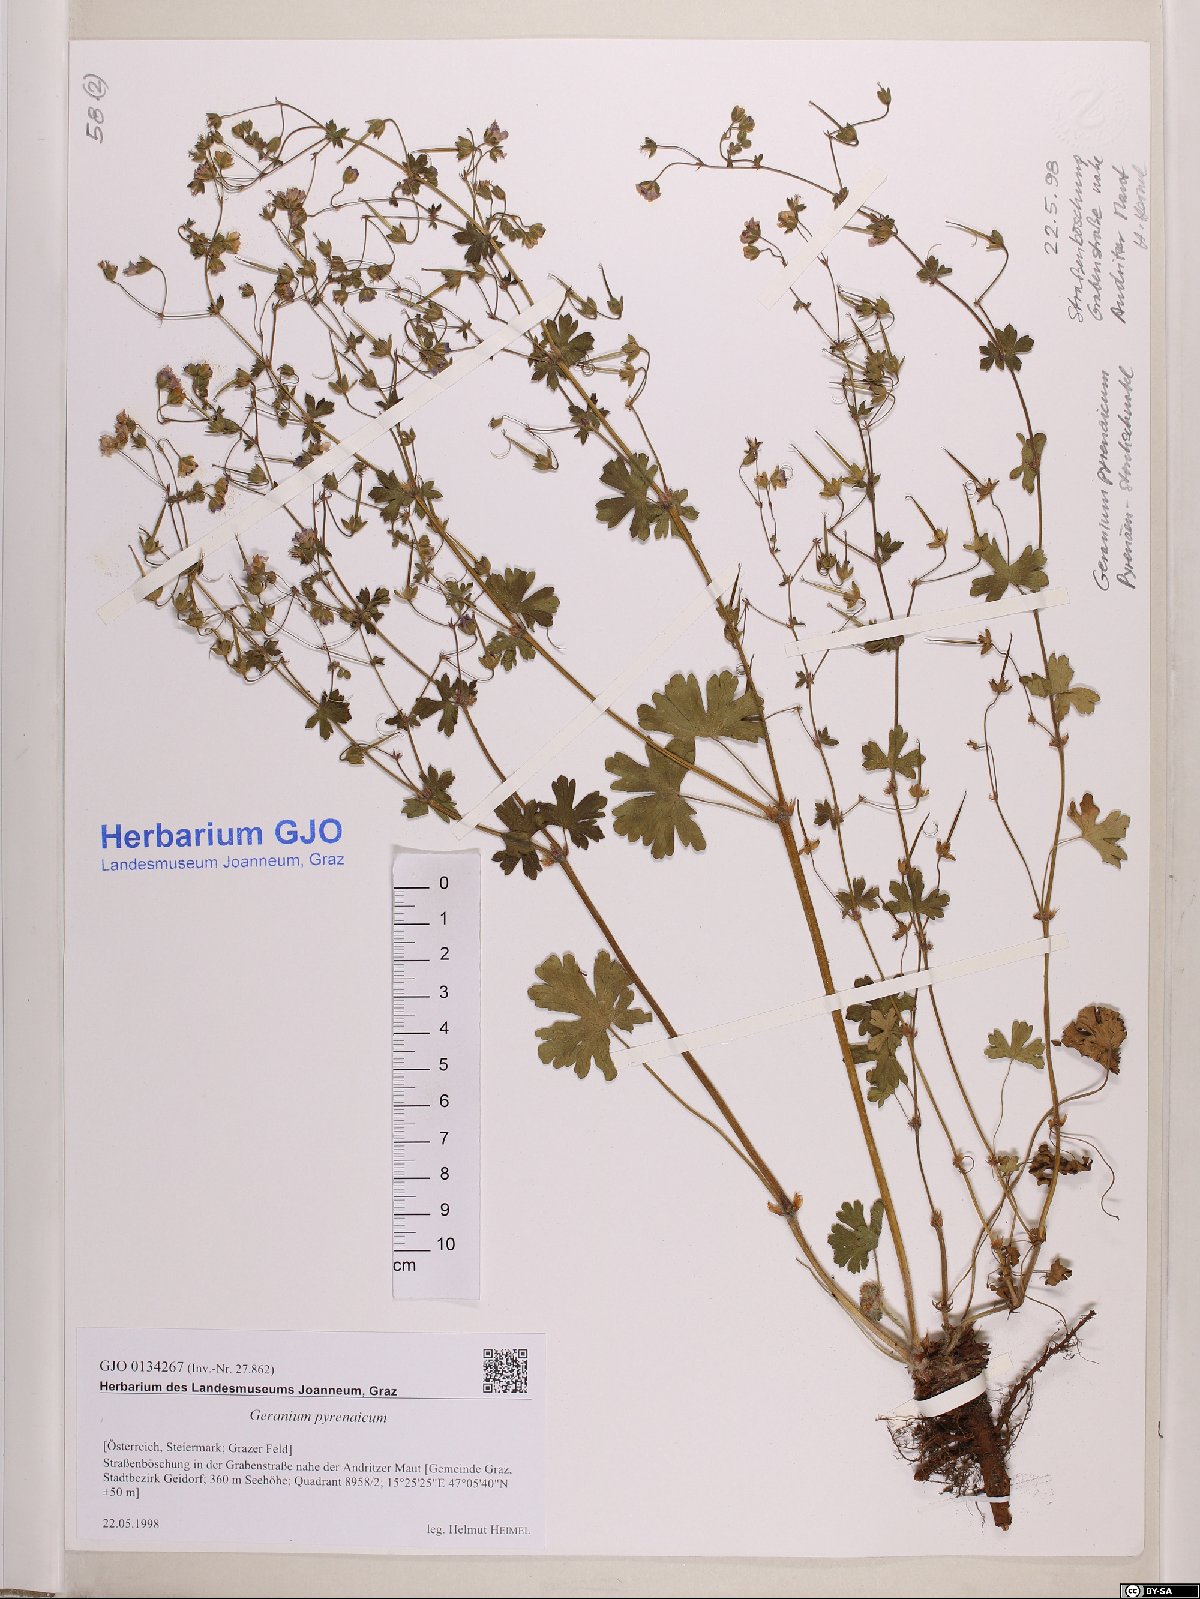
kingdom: Plantae
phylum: Tracheophyta
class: Magnoliopsida
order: Geraniales
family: Geraniaceae
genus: Geranium
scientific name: Geranium pyrenaicum
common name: Hedgerow crane's-bill
